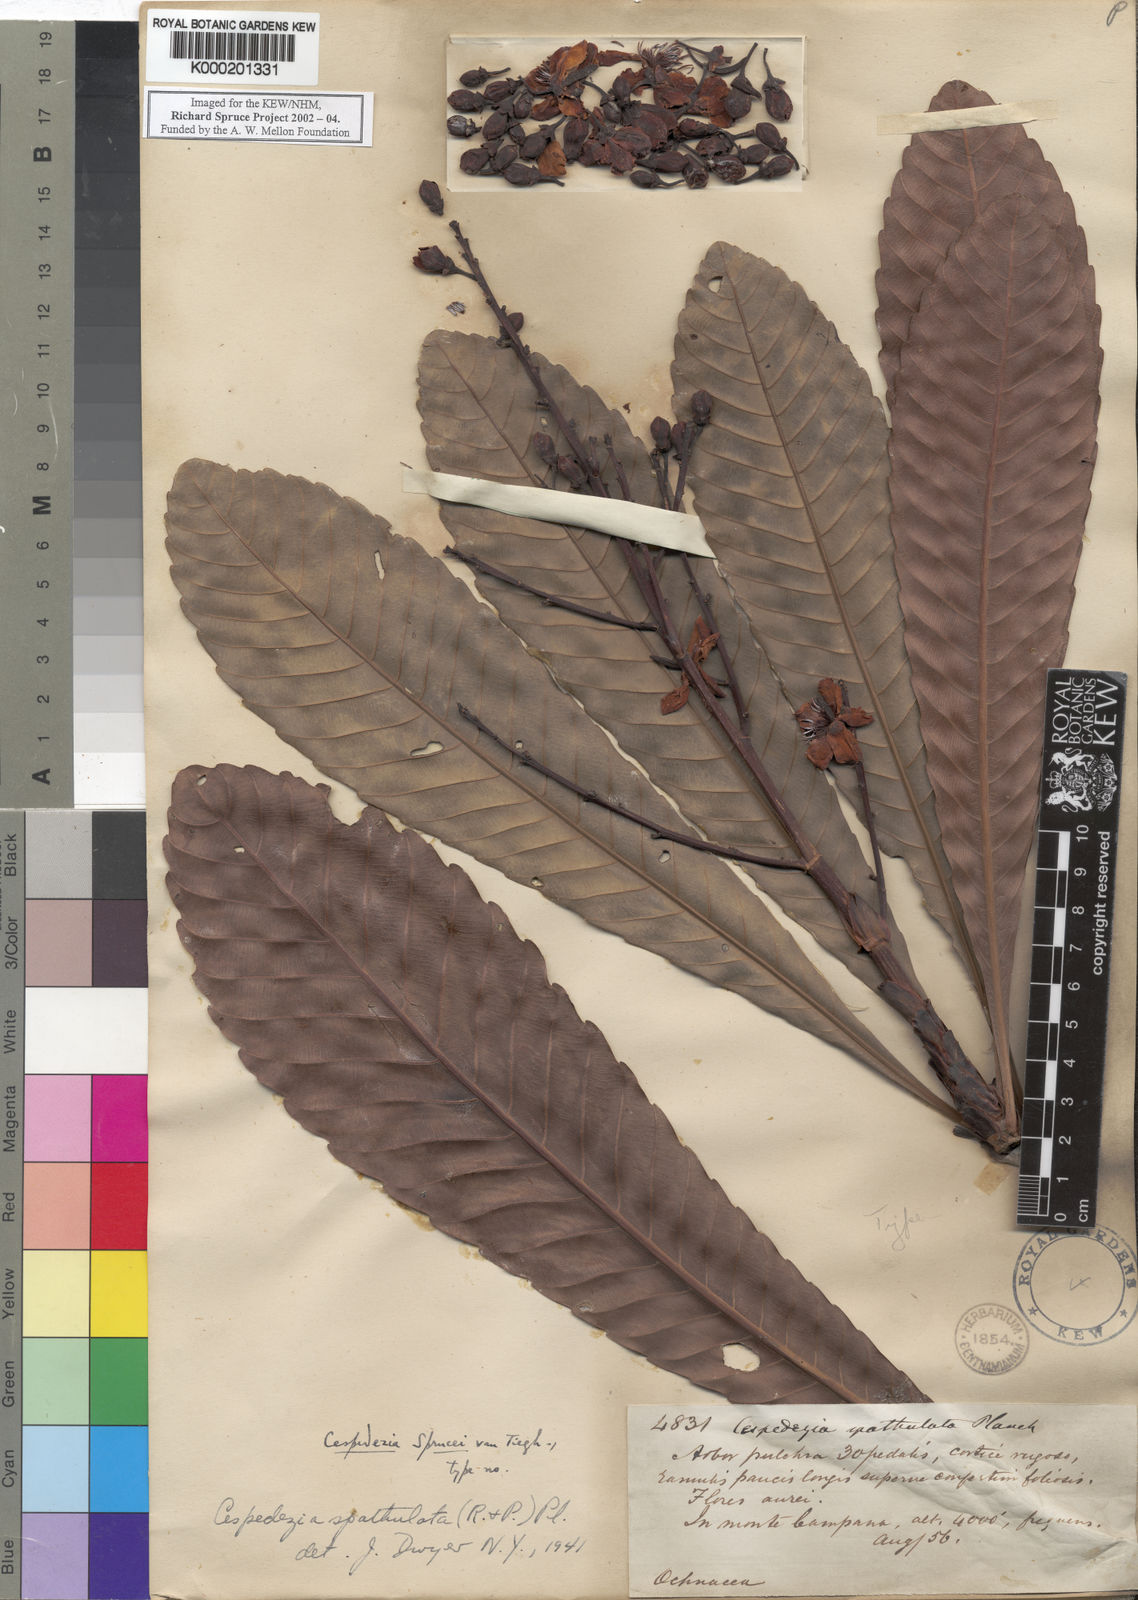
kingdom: Plantae
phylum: Tracheophyta
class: Magnoliopsida
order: Malpighiales
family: Ochnaceae
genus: Cespedesia
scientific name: Cespedesia spathulata
